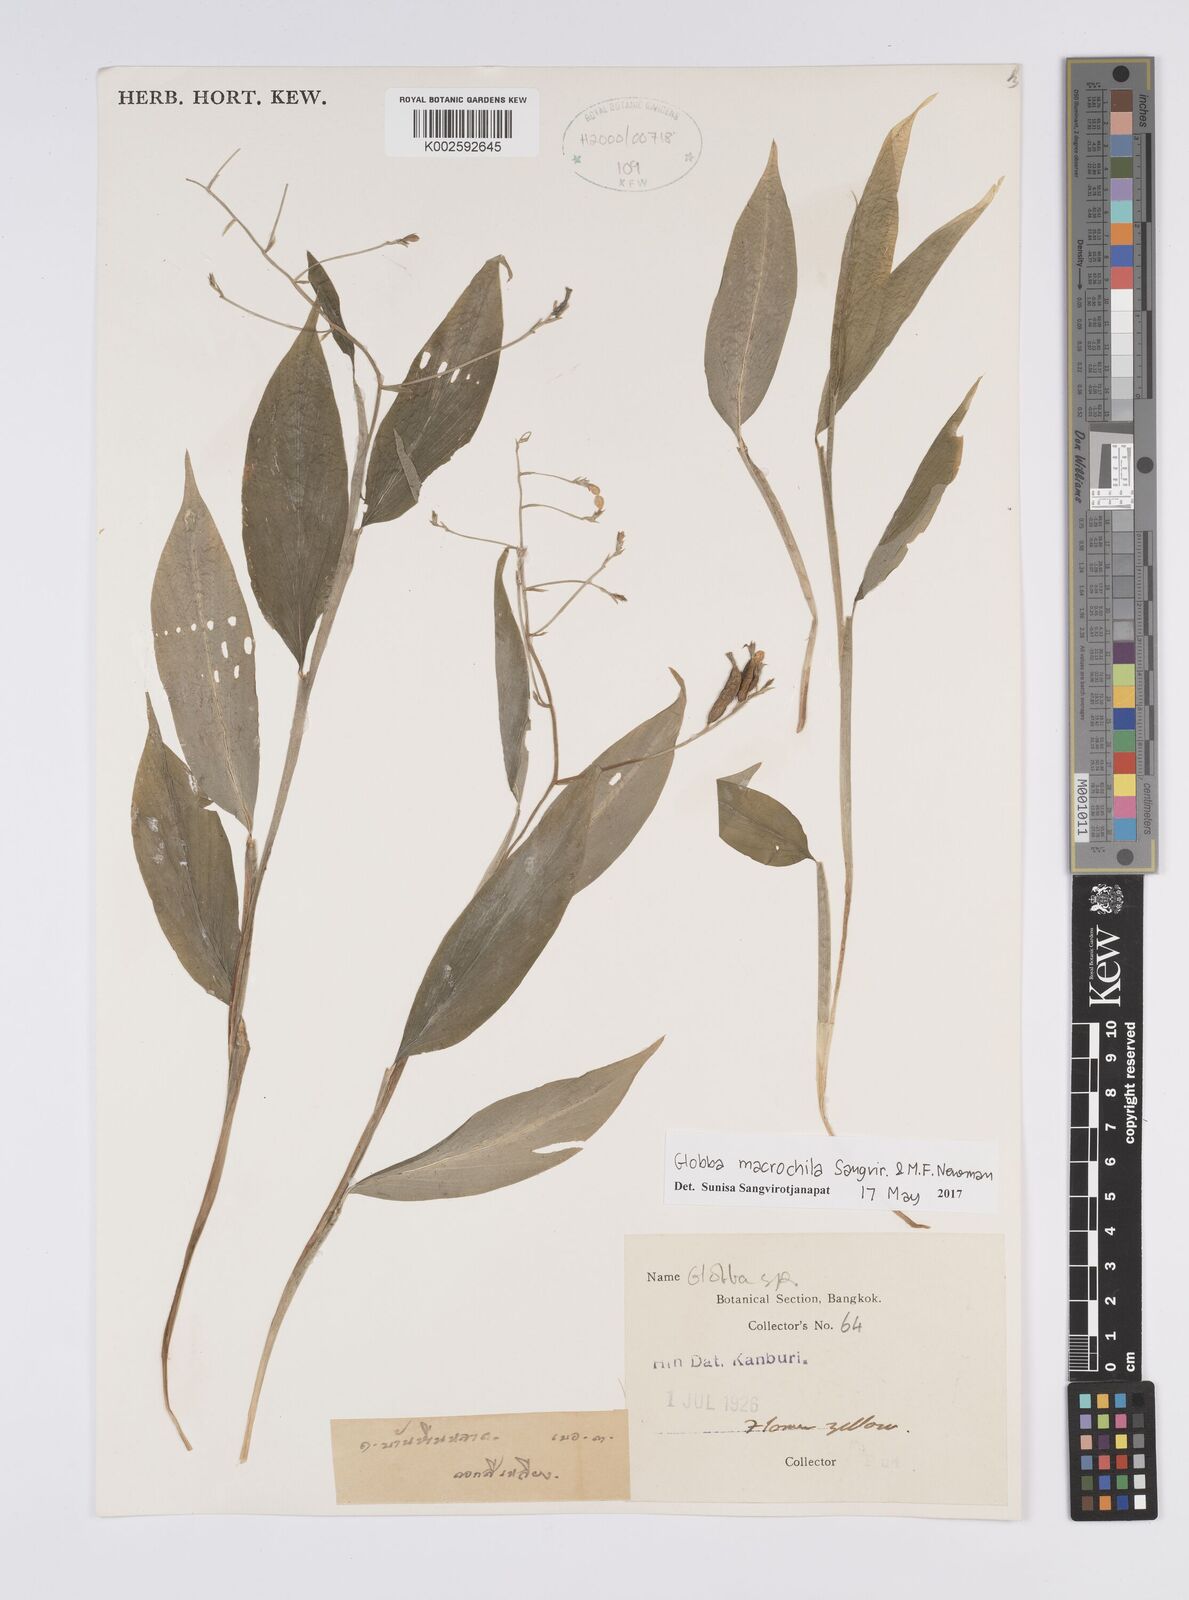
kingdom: Plantae
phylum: Tracheophyta
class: Liliopsida
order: Zingiberales
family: Zingiberaceae
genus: Globba
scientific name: Globba macrochila
